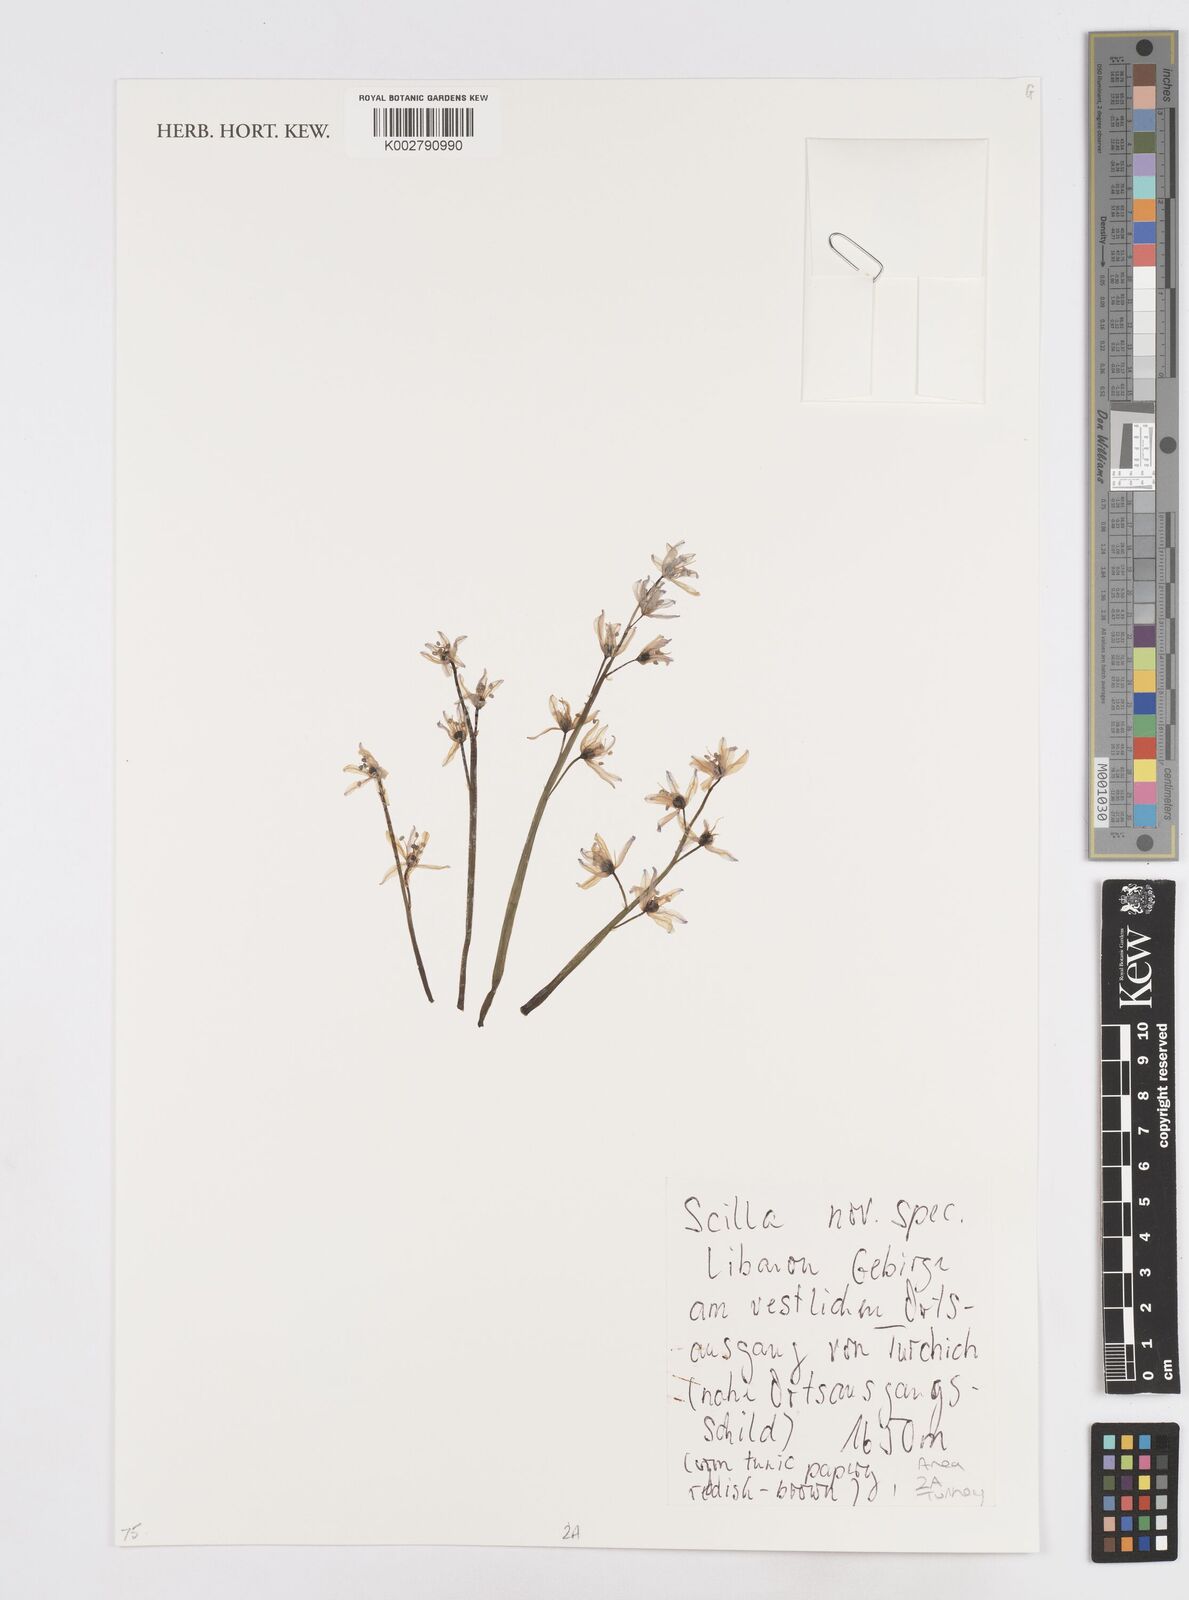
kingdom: Plantae
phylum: Tracheophyta
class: Liliopsida
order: Asparagales
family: Asparagaceae
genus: Scilla
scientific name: Scilla
